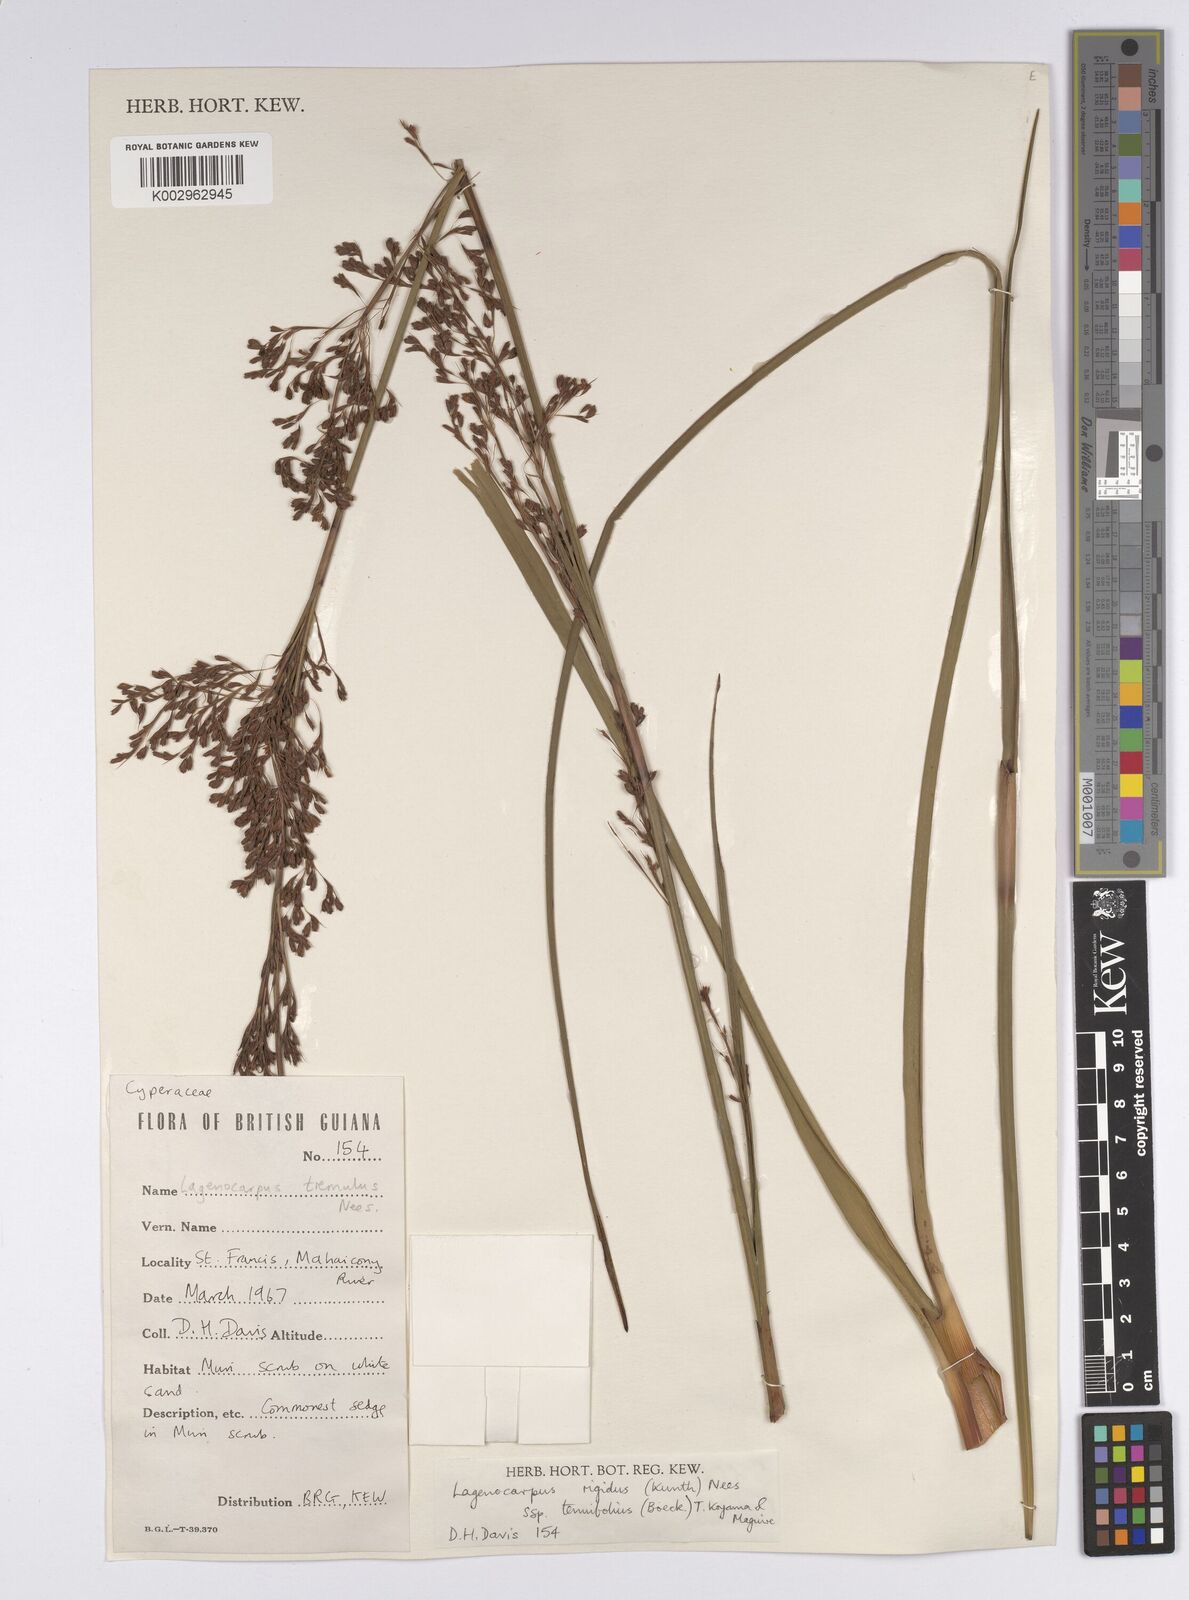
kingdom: Plantae
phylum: Tracheophyta
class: Liliopsida
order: Poales
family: Cyperaceae
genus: Lagenocarpus
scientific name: Lagenocarpus rigidus
